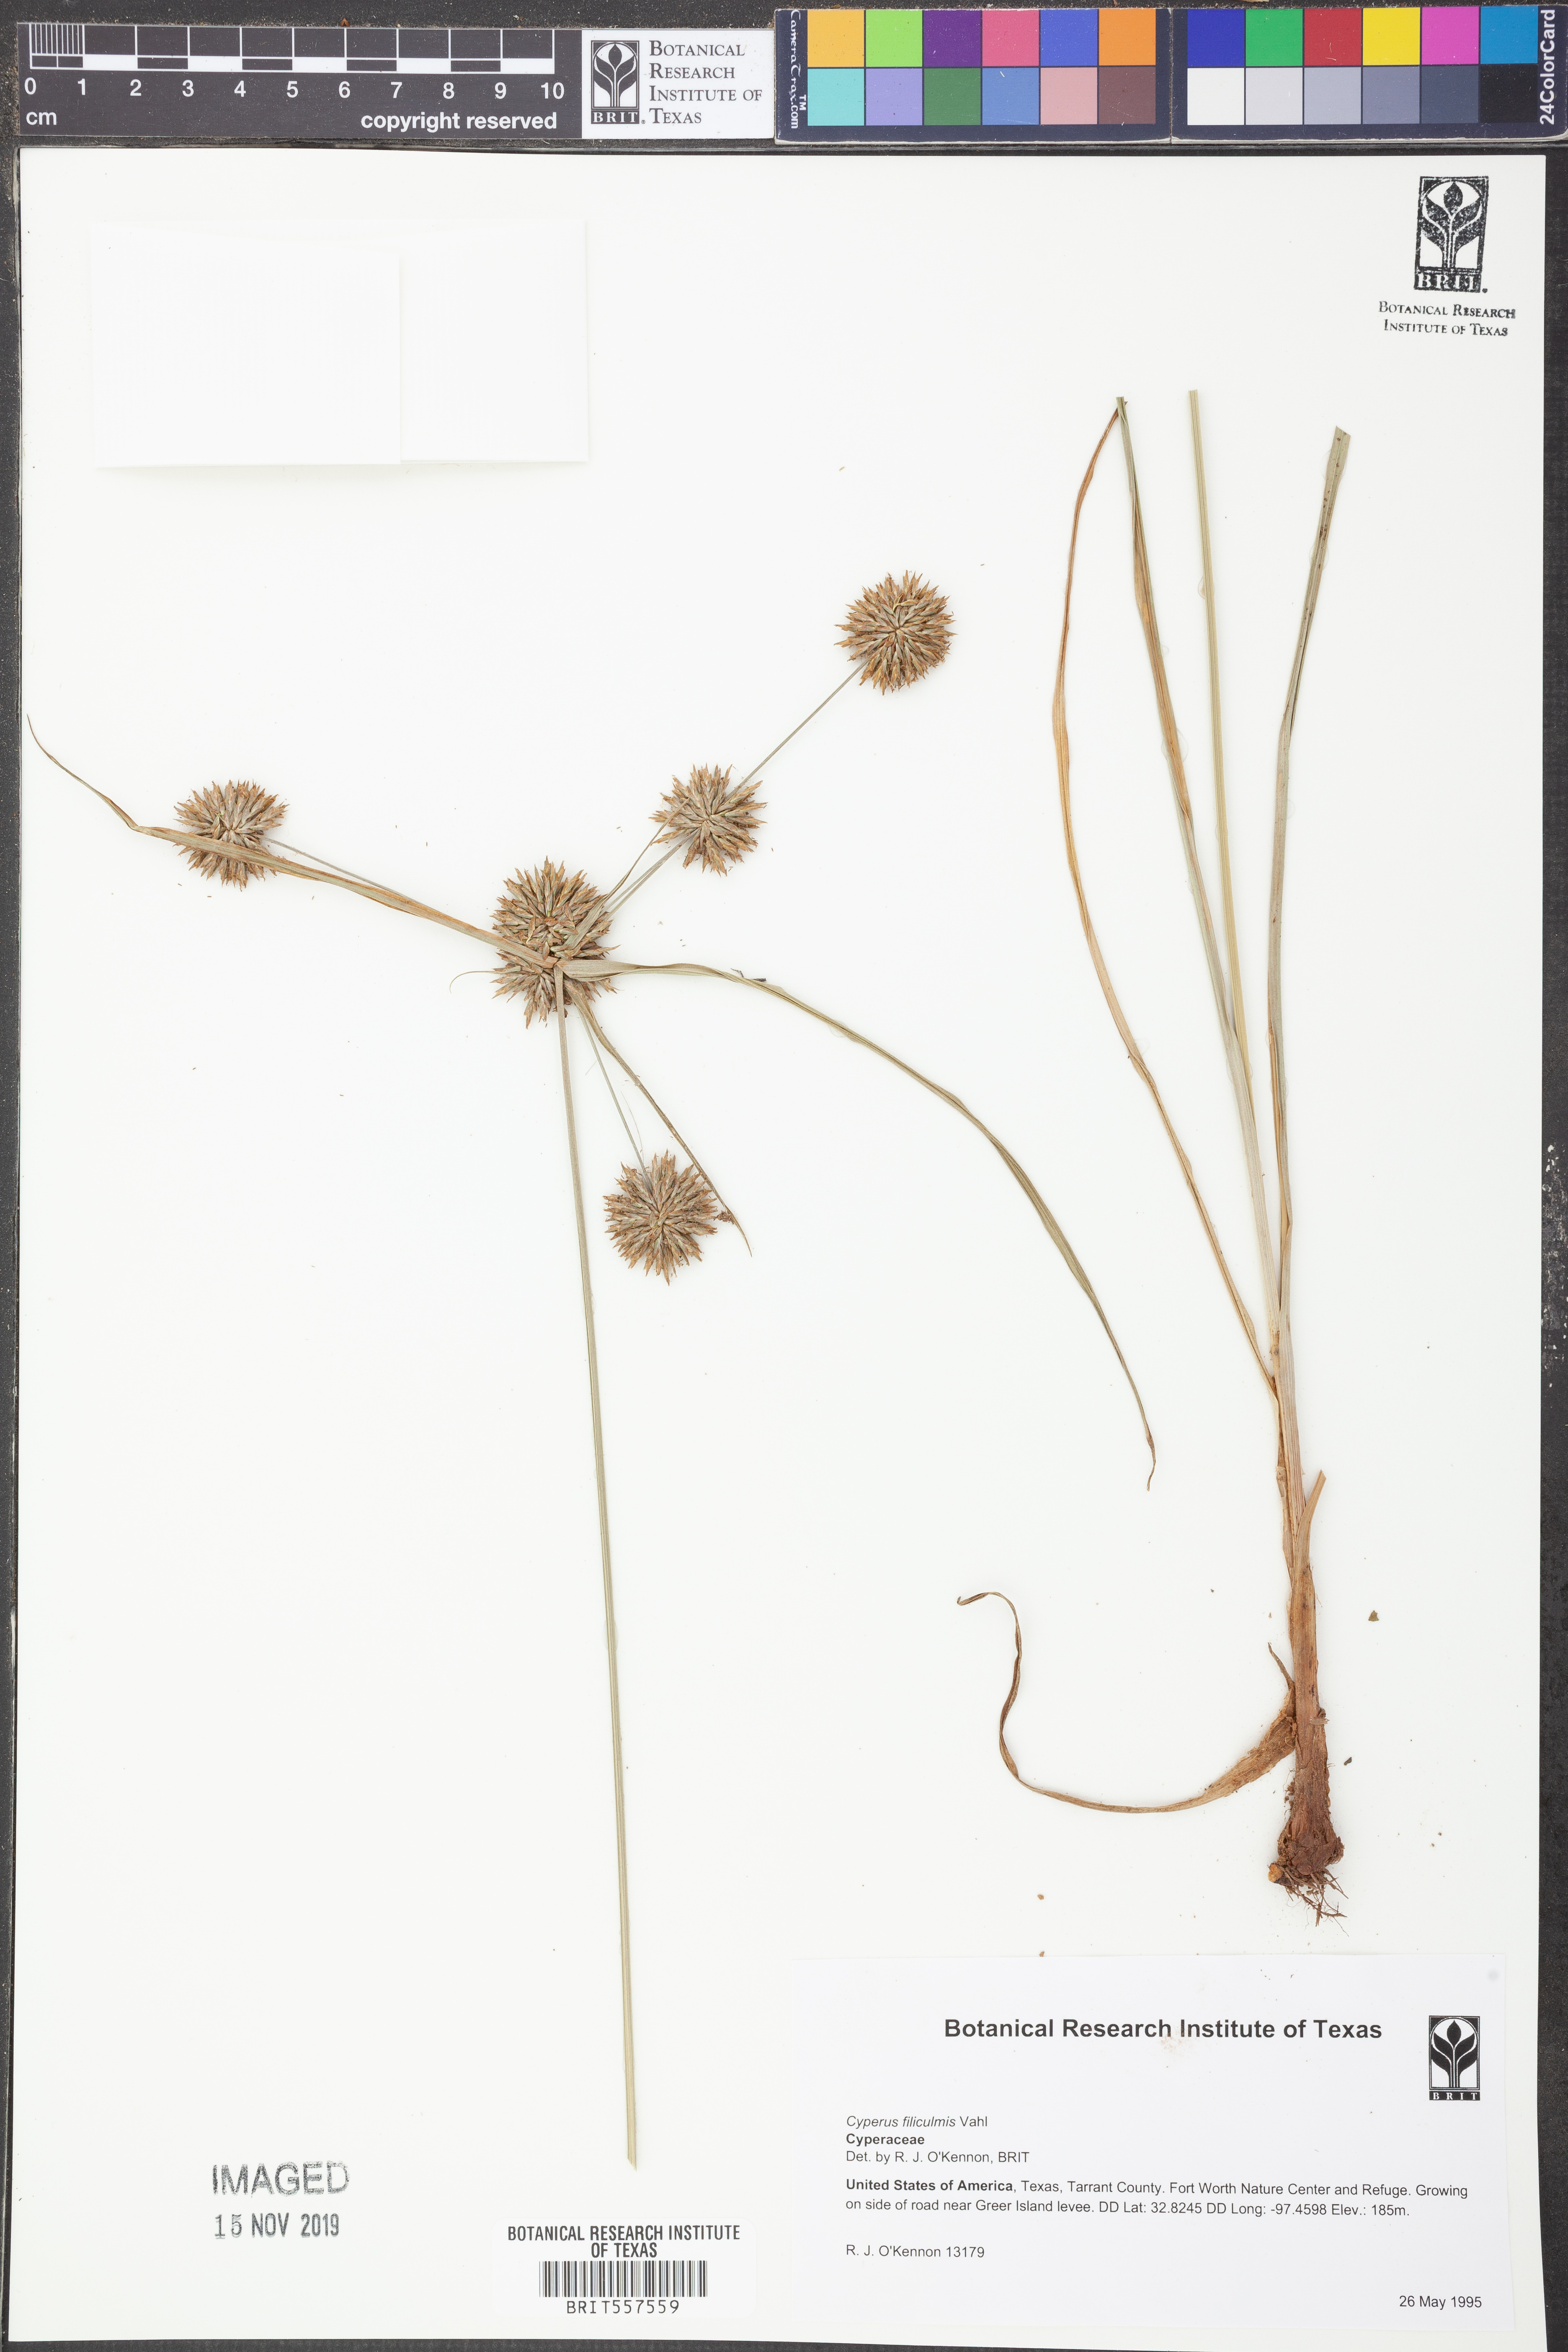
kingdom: Plantae
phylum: Tracheophyta
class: Liliopsida
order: Poales
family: Cyperaceae
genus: Cyperus
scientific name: Cyperus lanceolatus
